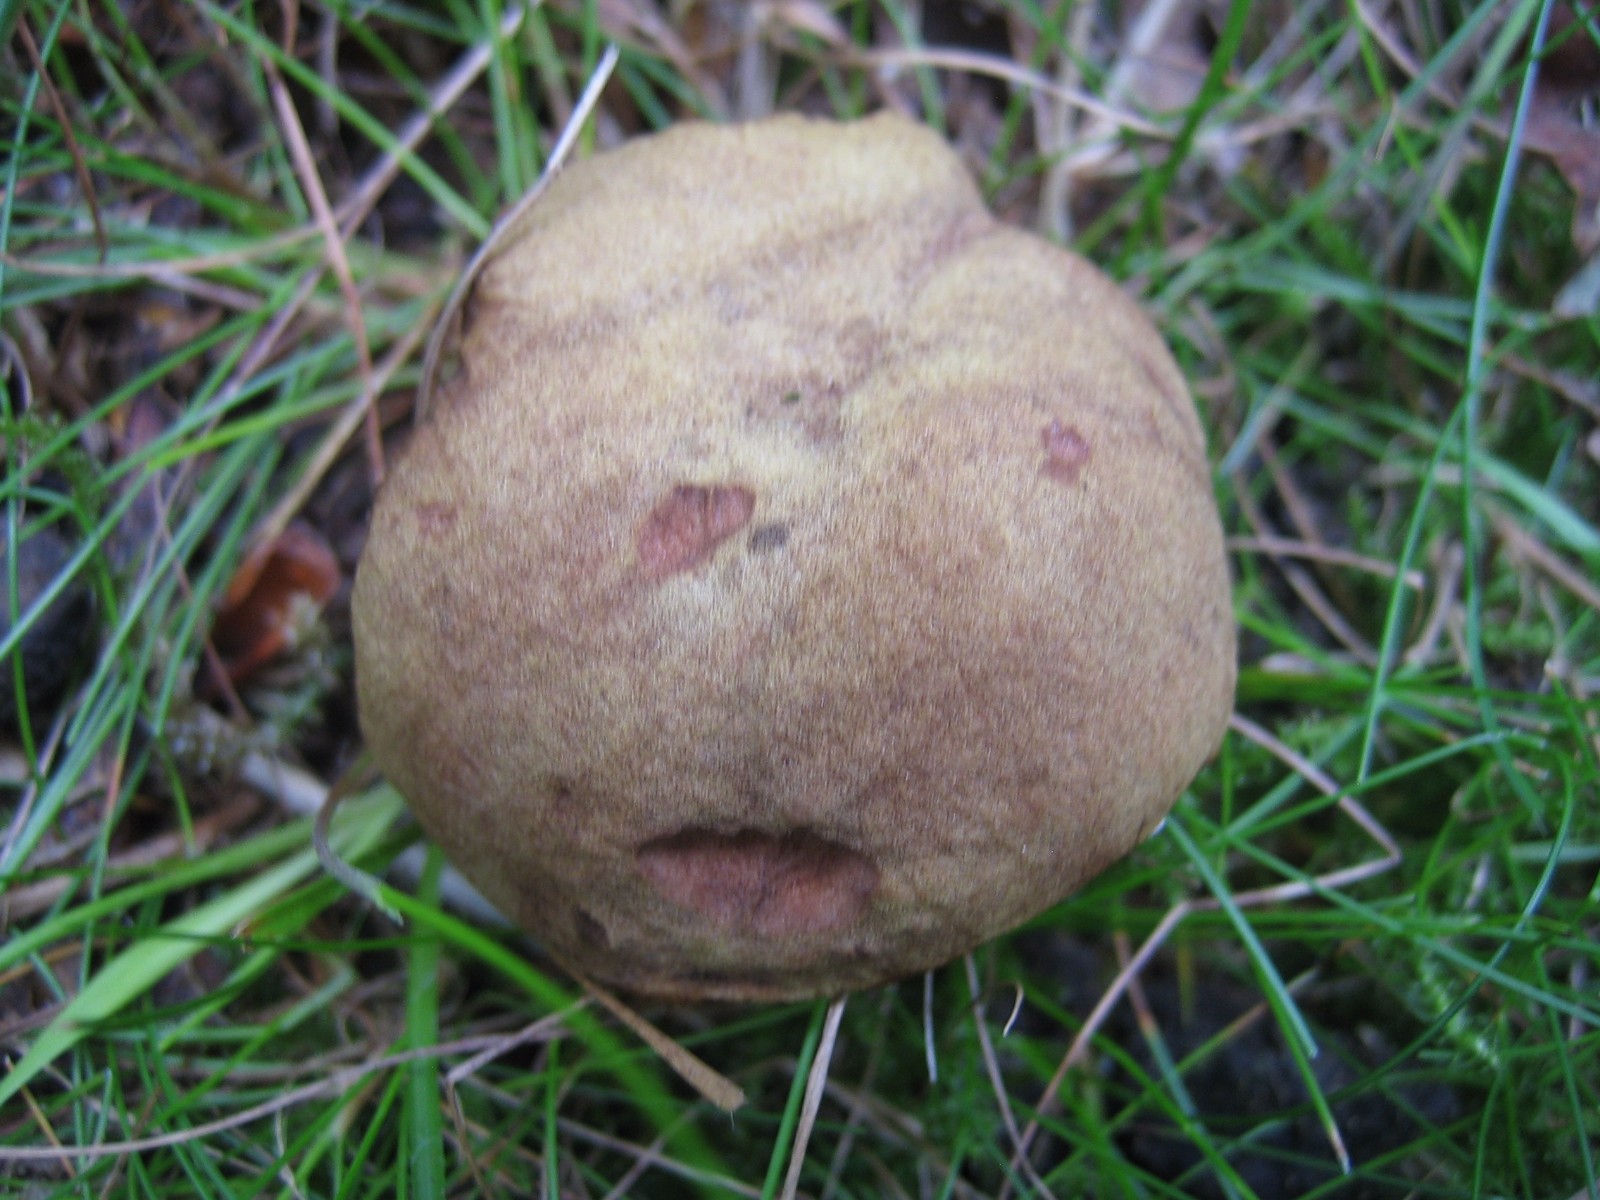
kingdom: Fungi
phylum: Basidiomycota
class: Agaricomycetes
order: Boletales
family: Boletaceae
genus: Xerocomus
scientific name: Xerocomus ferrugineus
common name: vaskeskinds-rørhat
